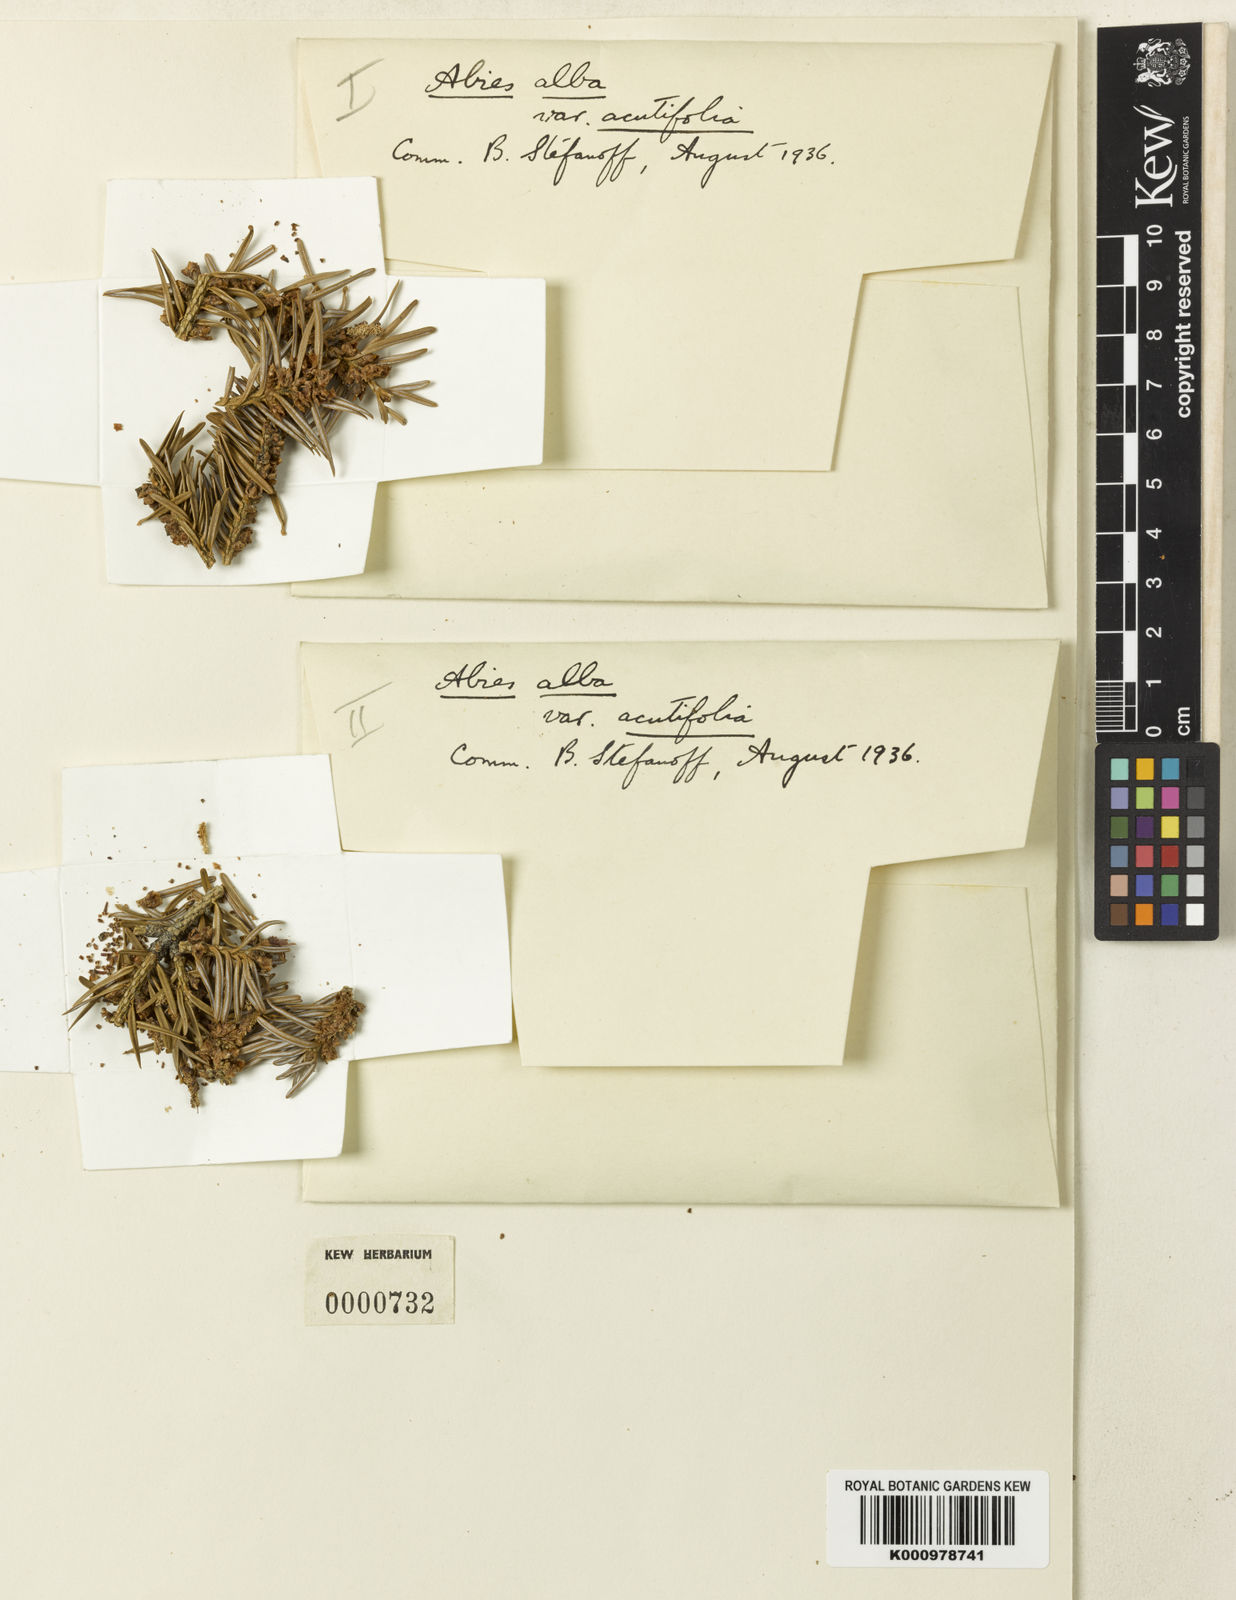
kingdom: Plantae
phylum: Tracheophyta
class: Pinopsida
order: Pinales
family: Pinaceae
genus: Abies
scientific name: Abies alba
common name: Silver fir
